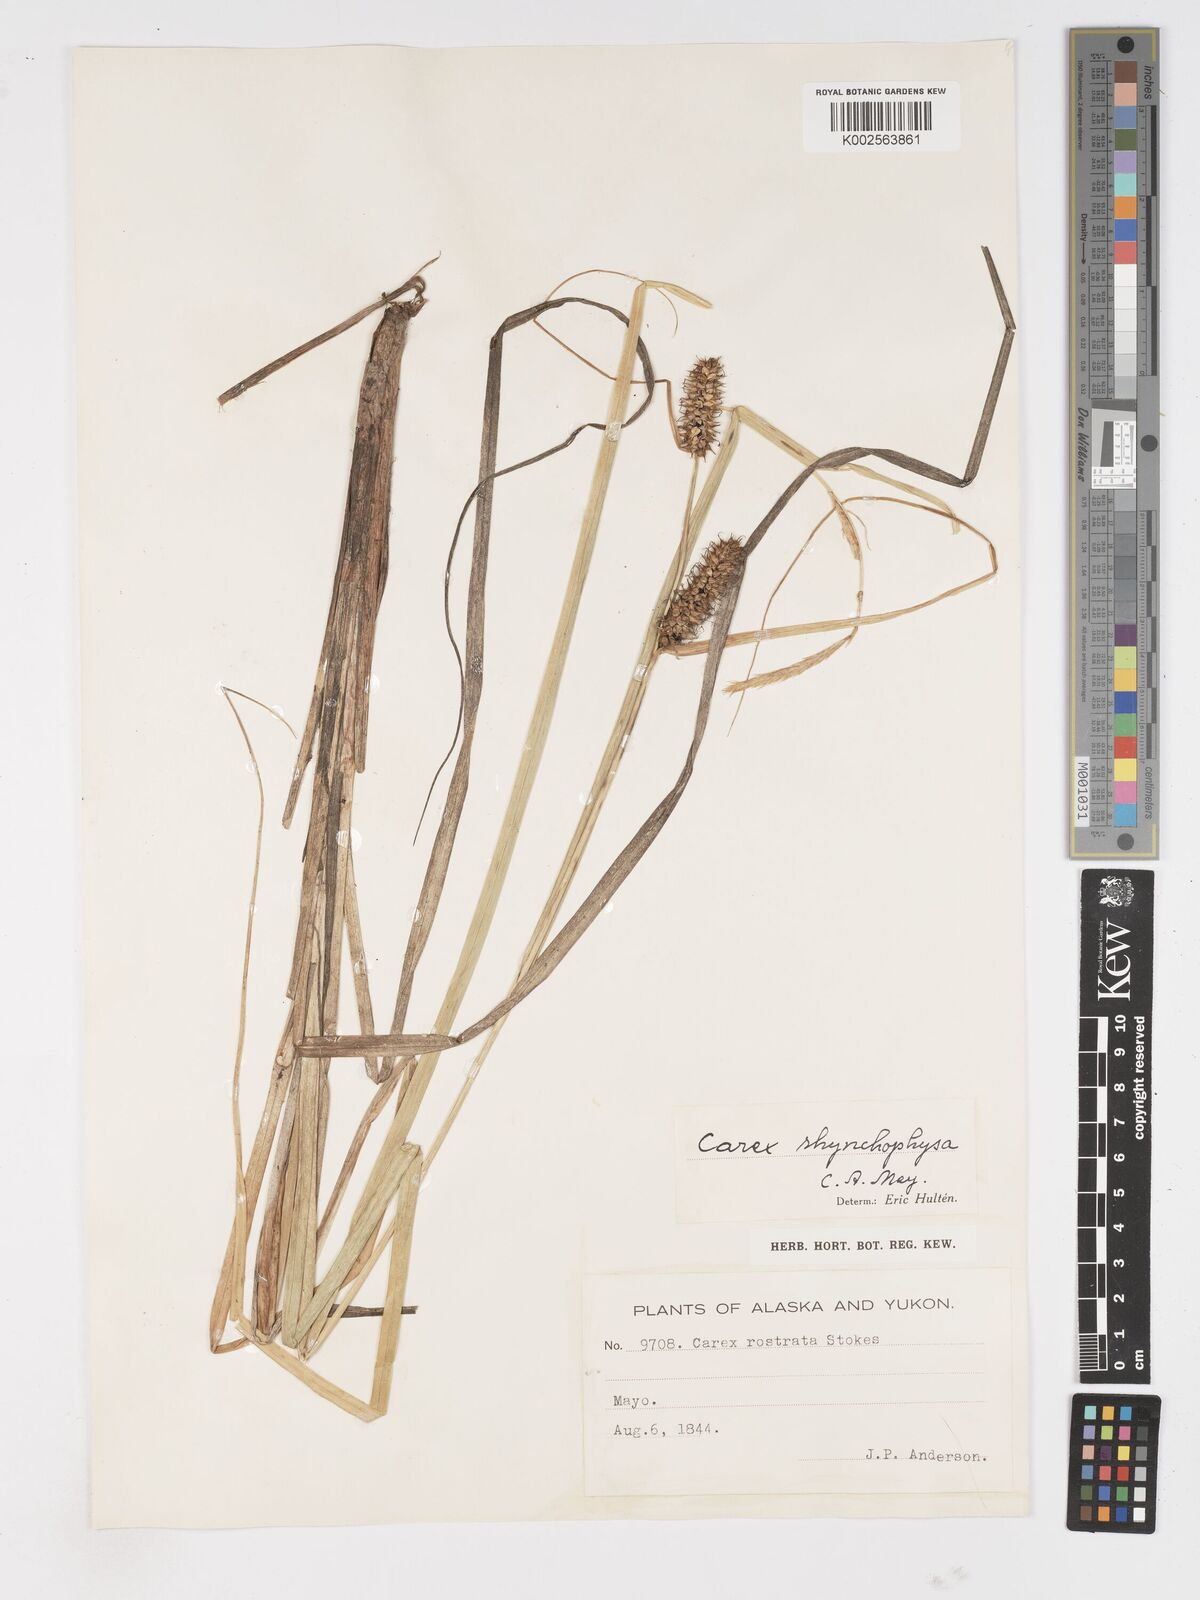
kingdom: Plantae
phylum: Tracheophyta
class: Liliopsida
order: Poales
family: Cyperaceae
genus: Carex
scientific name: Carex utriculata
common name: Beaked sedge
